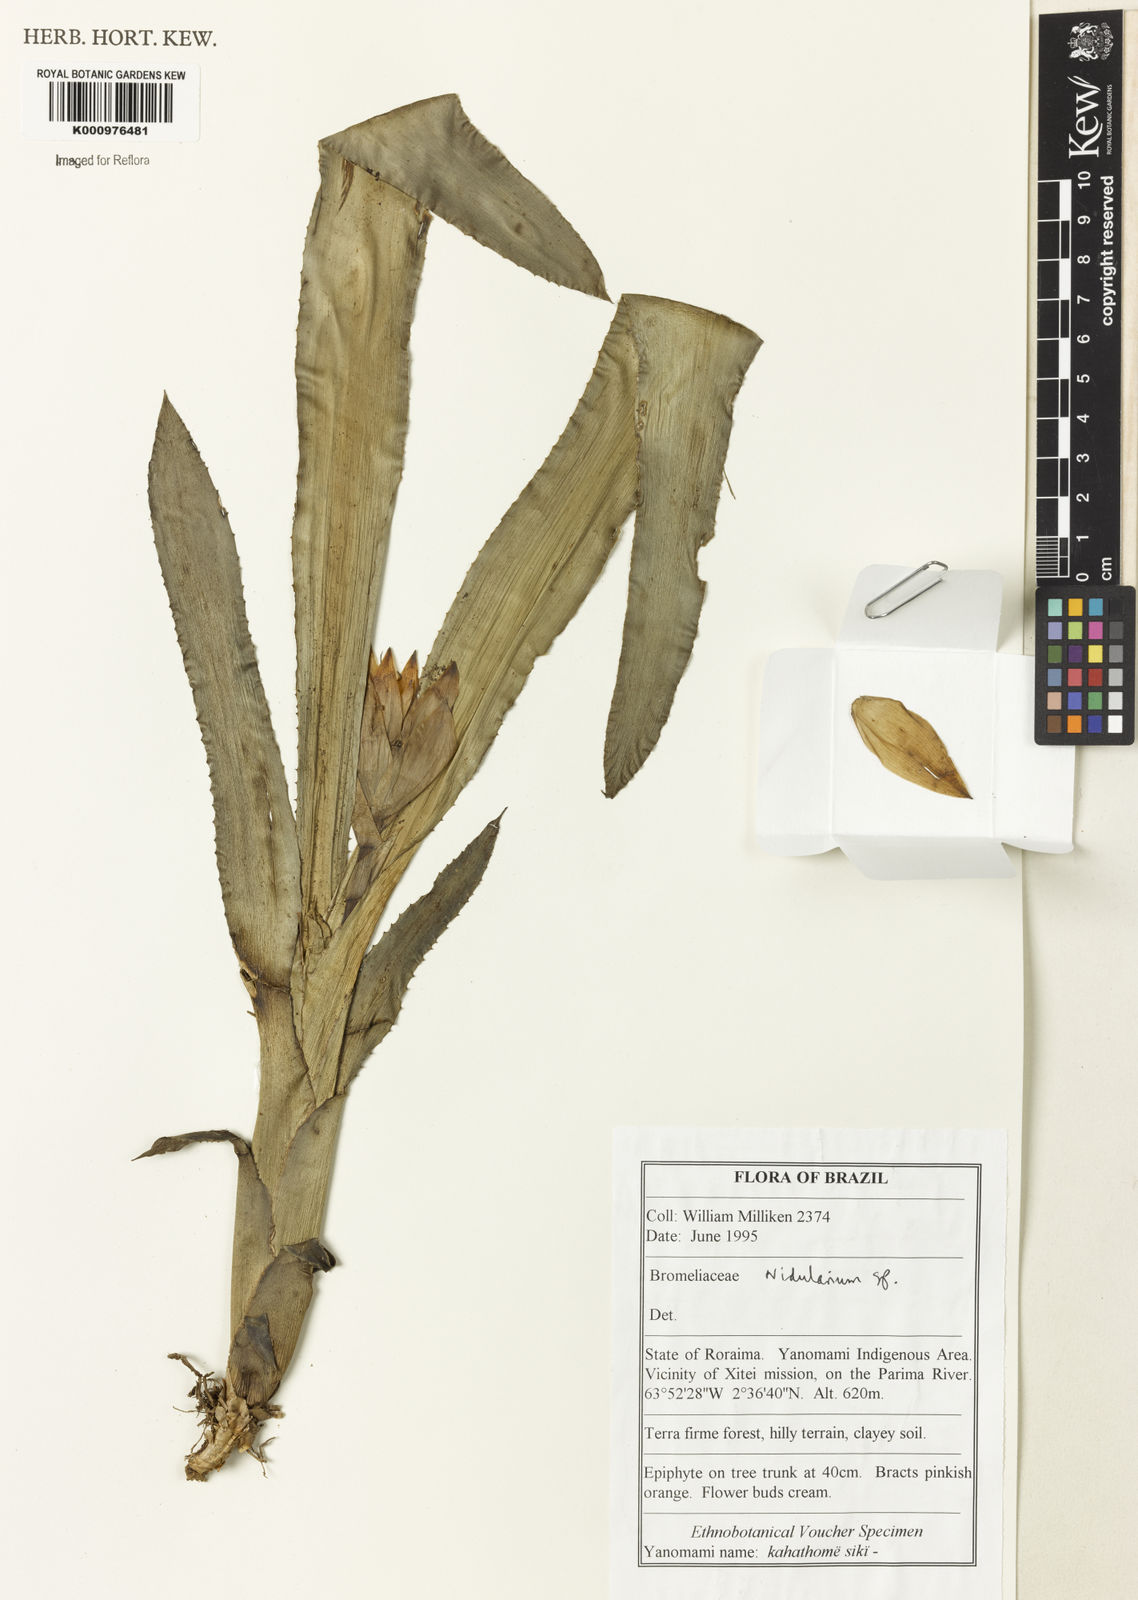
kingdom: Plantae
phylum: Tracheophyta
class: Liliopsida
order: Poales
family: Bromeliaceae
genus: Nidularium
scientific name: Nidularium
